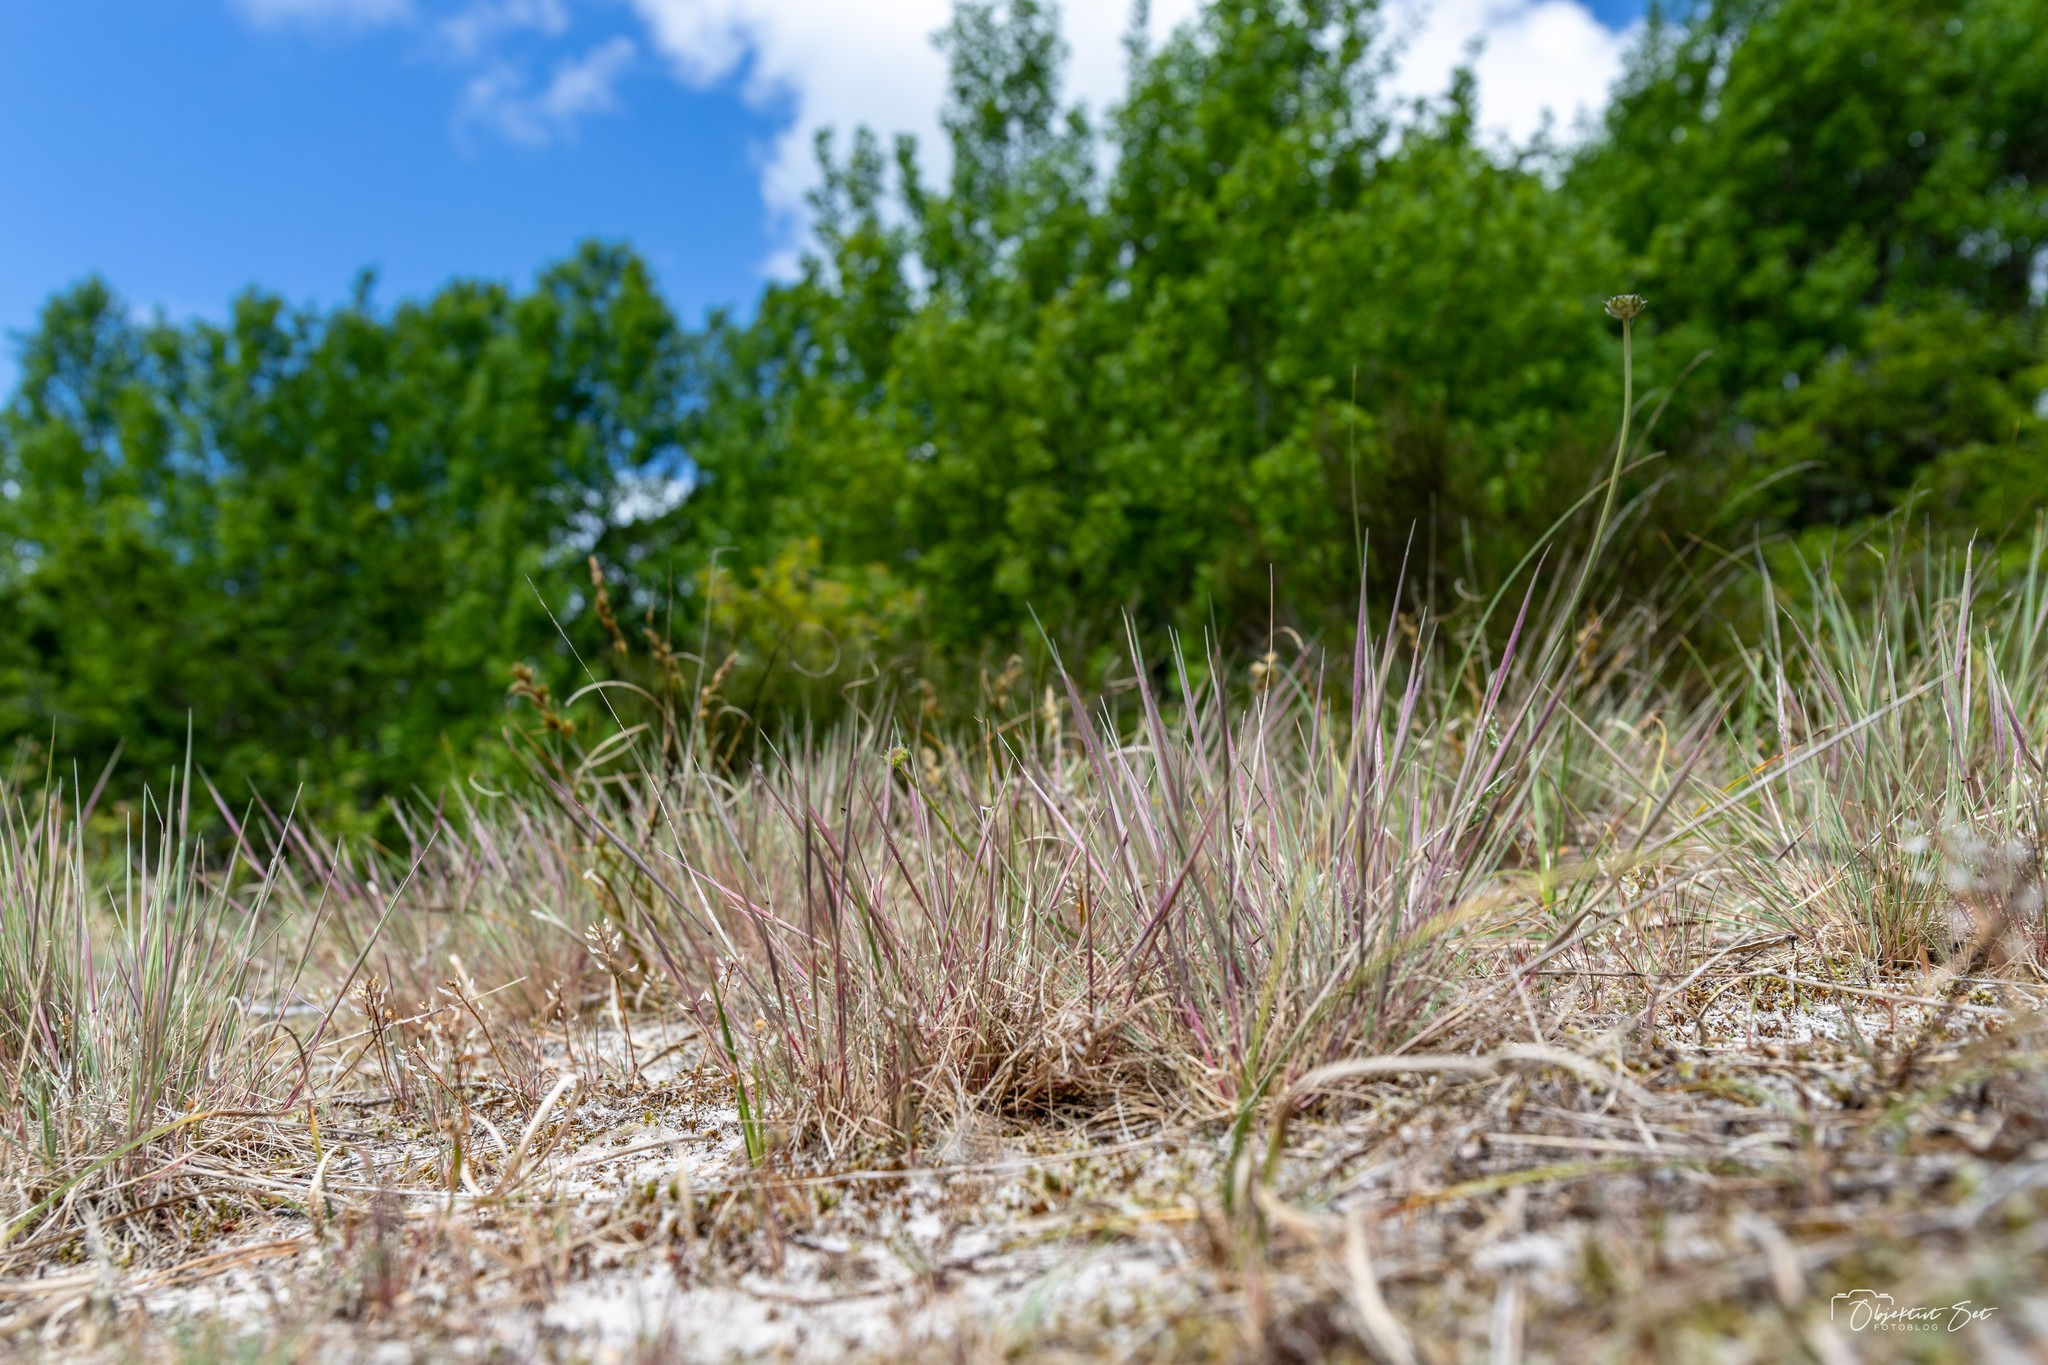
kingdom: Plantae
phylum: Tracheophyta
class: Liliopsida
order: Poales
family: Poaceae
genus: Corynephorus
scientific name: Corynephorus canescens
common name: Sandskæg
